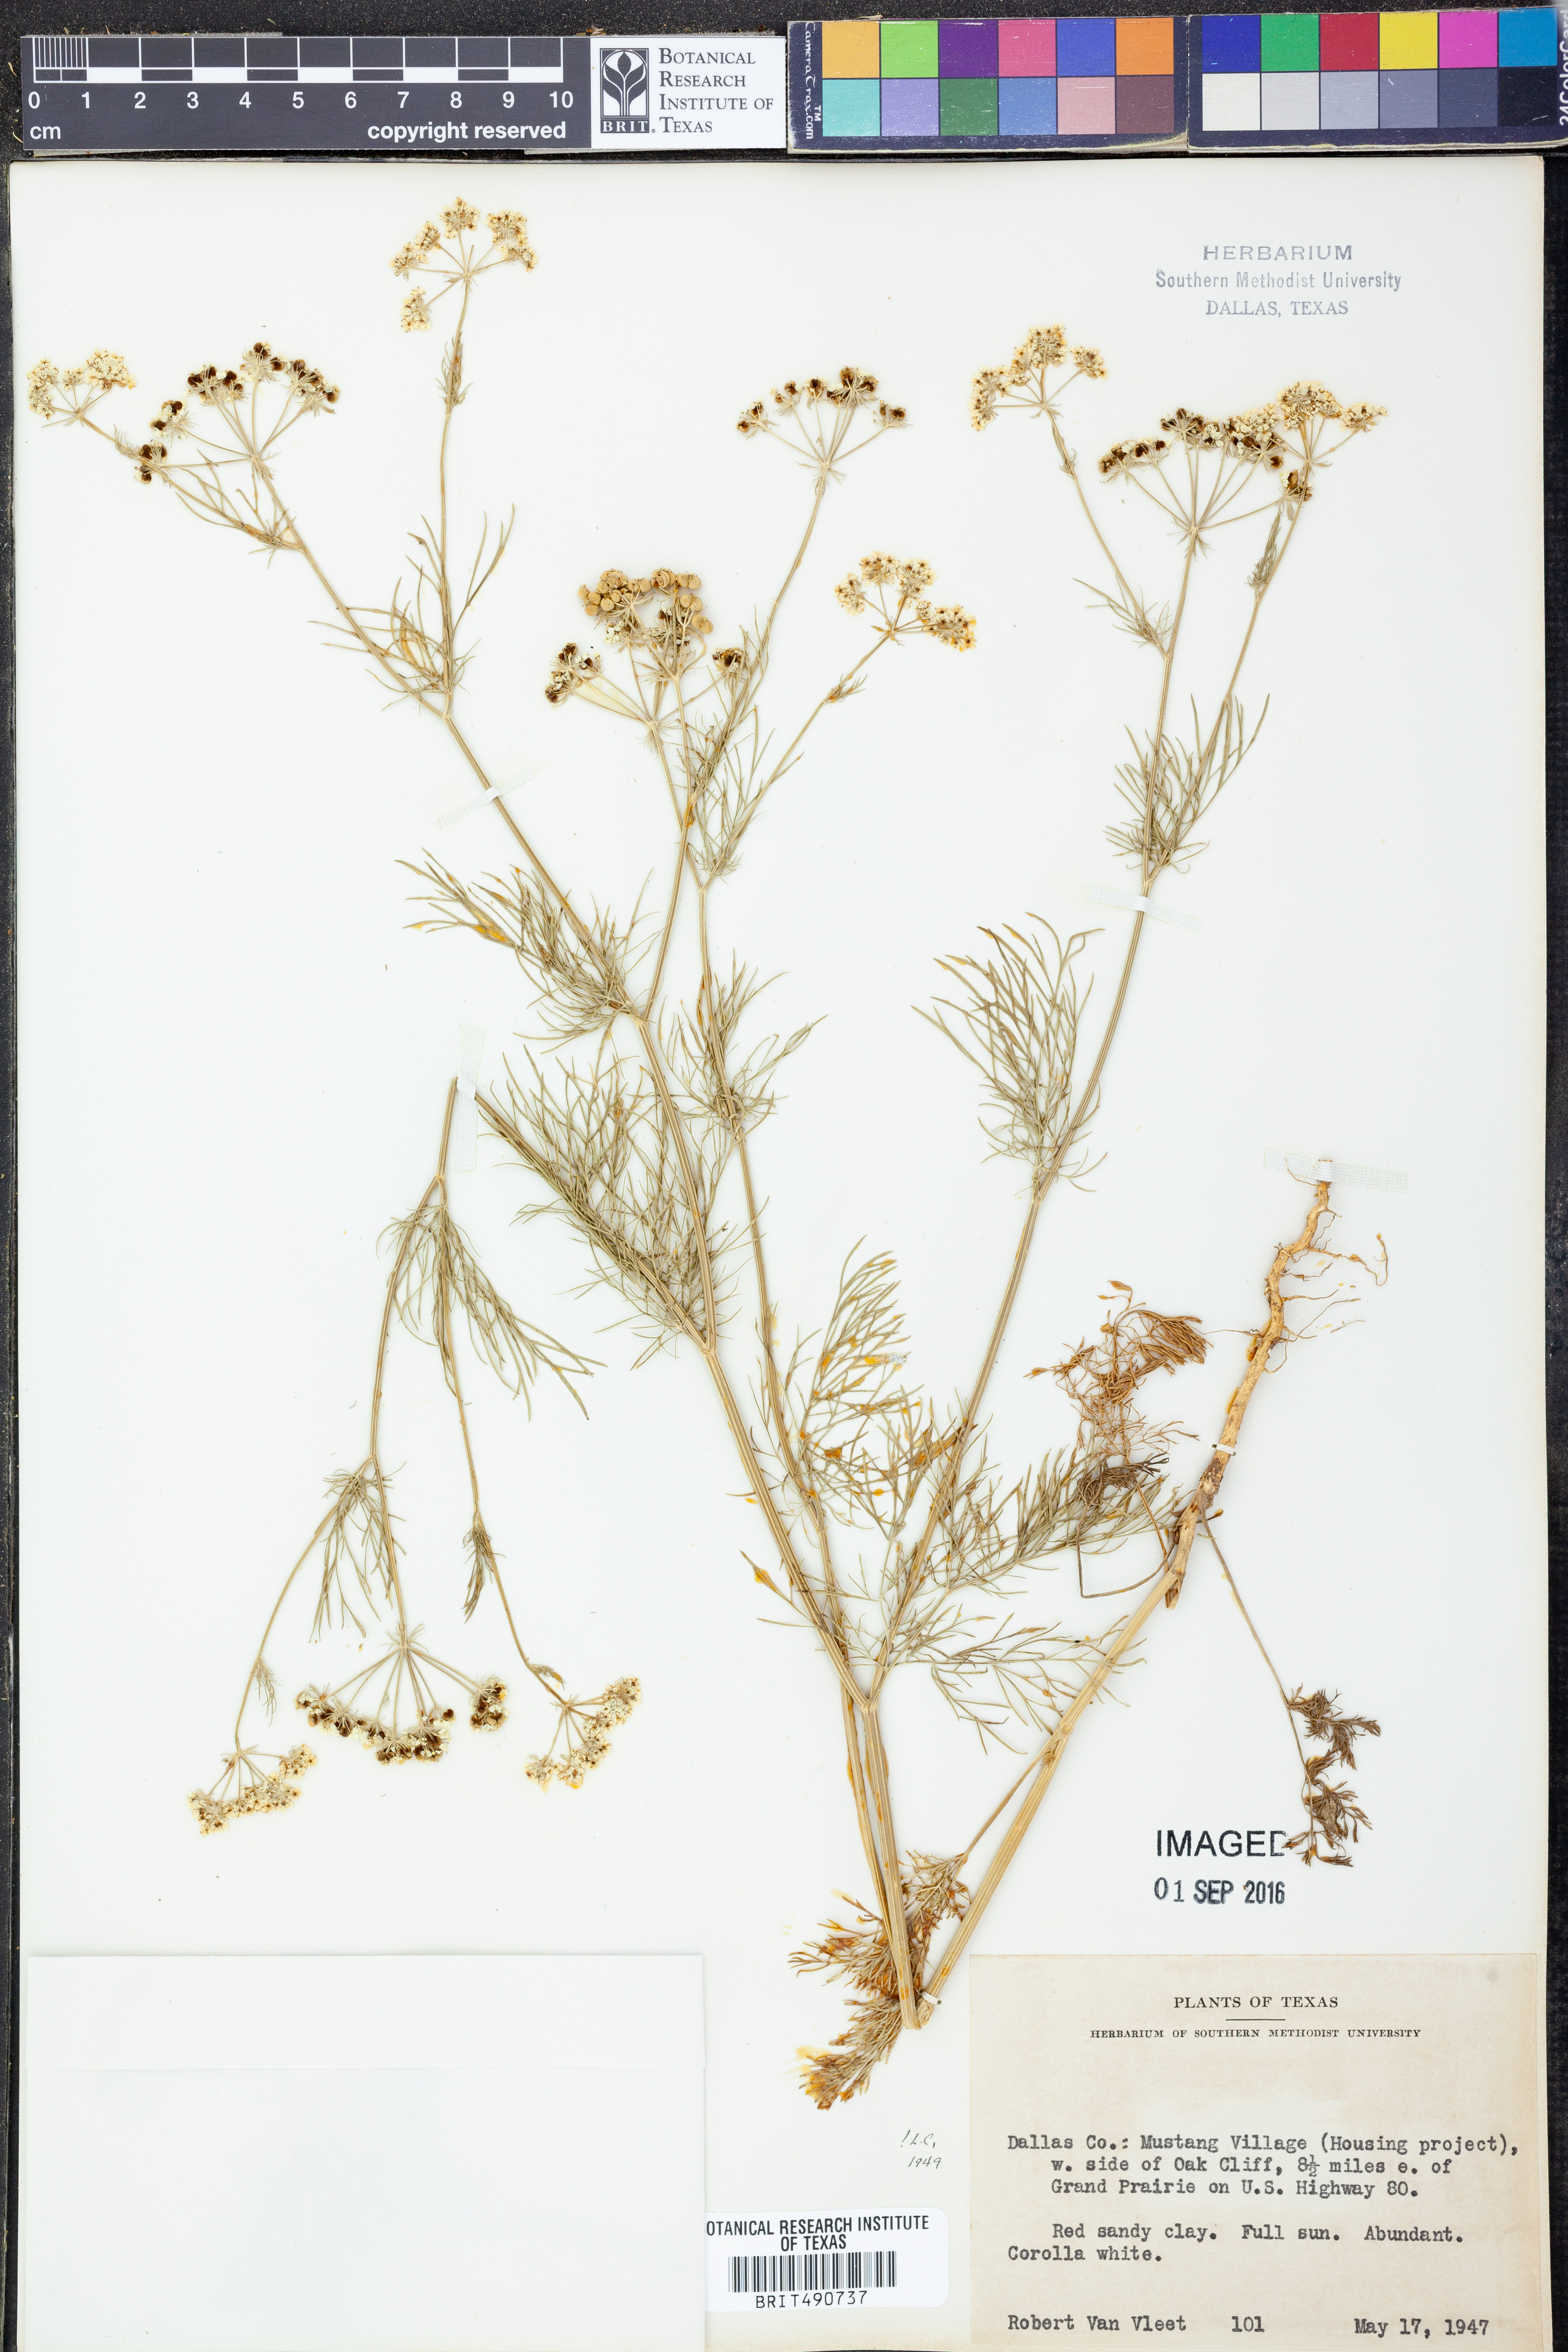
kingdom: Plantae
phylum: Tracheophyta
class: Magnoliopsida
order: Apiales
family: Apiaceae
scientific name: Apiaceae
